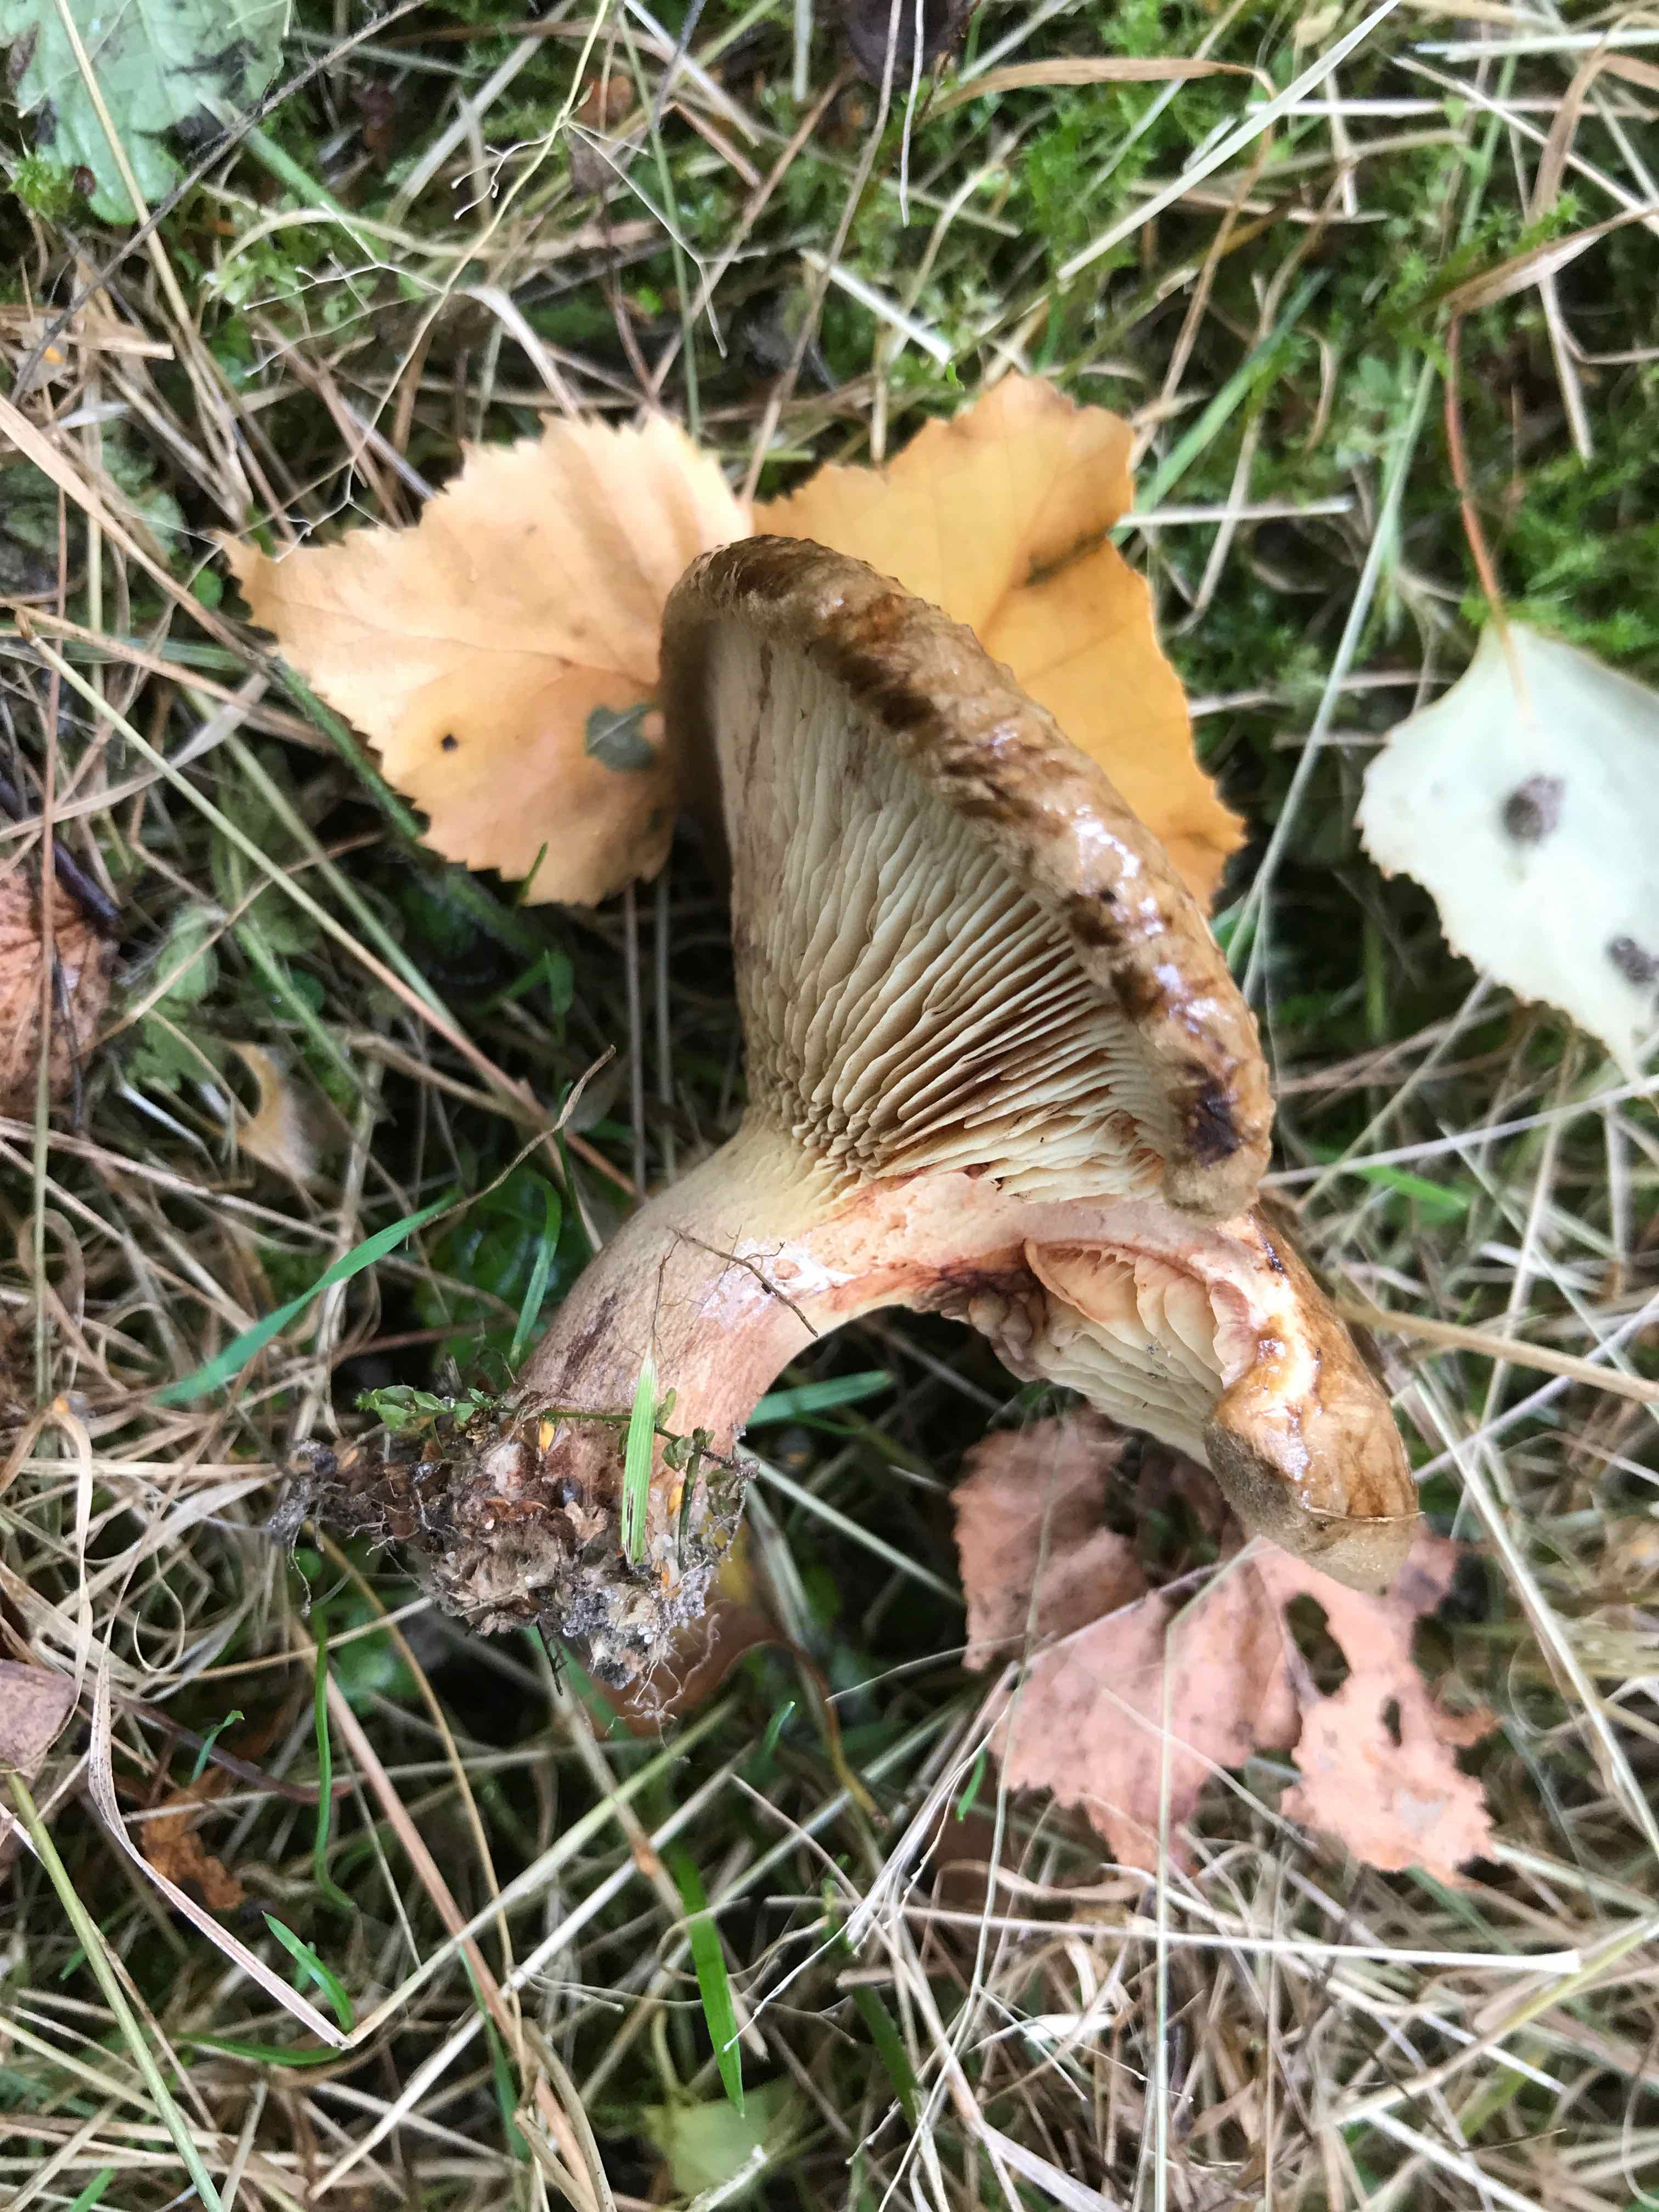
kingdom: Fungi
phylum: Basidiomycota
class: Agaricomycetes
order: Boletales
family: Paxillaceae
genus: Paxillus
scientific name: Paxillus involutus
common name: almindelig netbladhat
